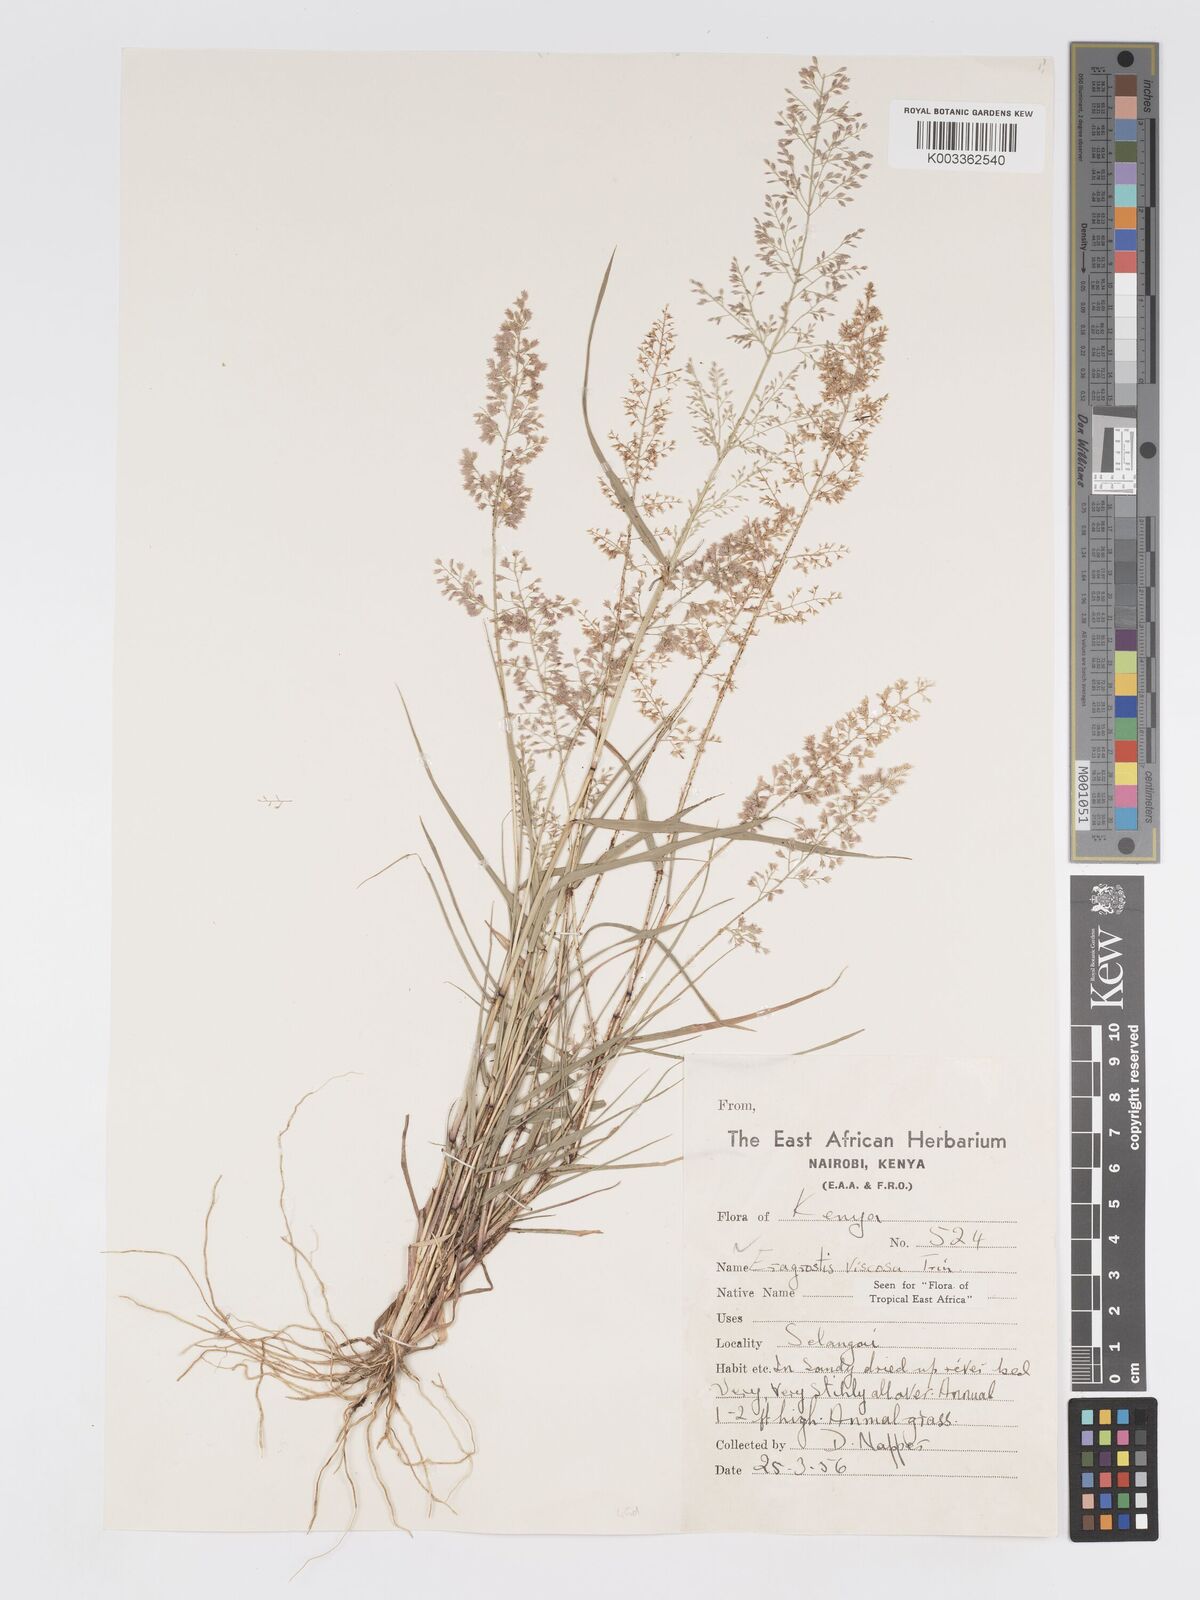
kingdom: Plantae
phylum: Tracheophyta
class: Liliopsida
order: Poales
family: Poaceae
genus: Eragrostis
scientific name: Eragrostis viscosa
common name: Sticky love grass
